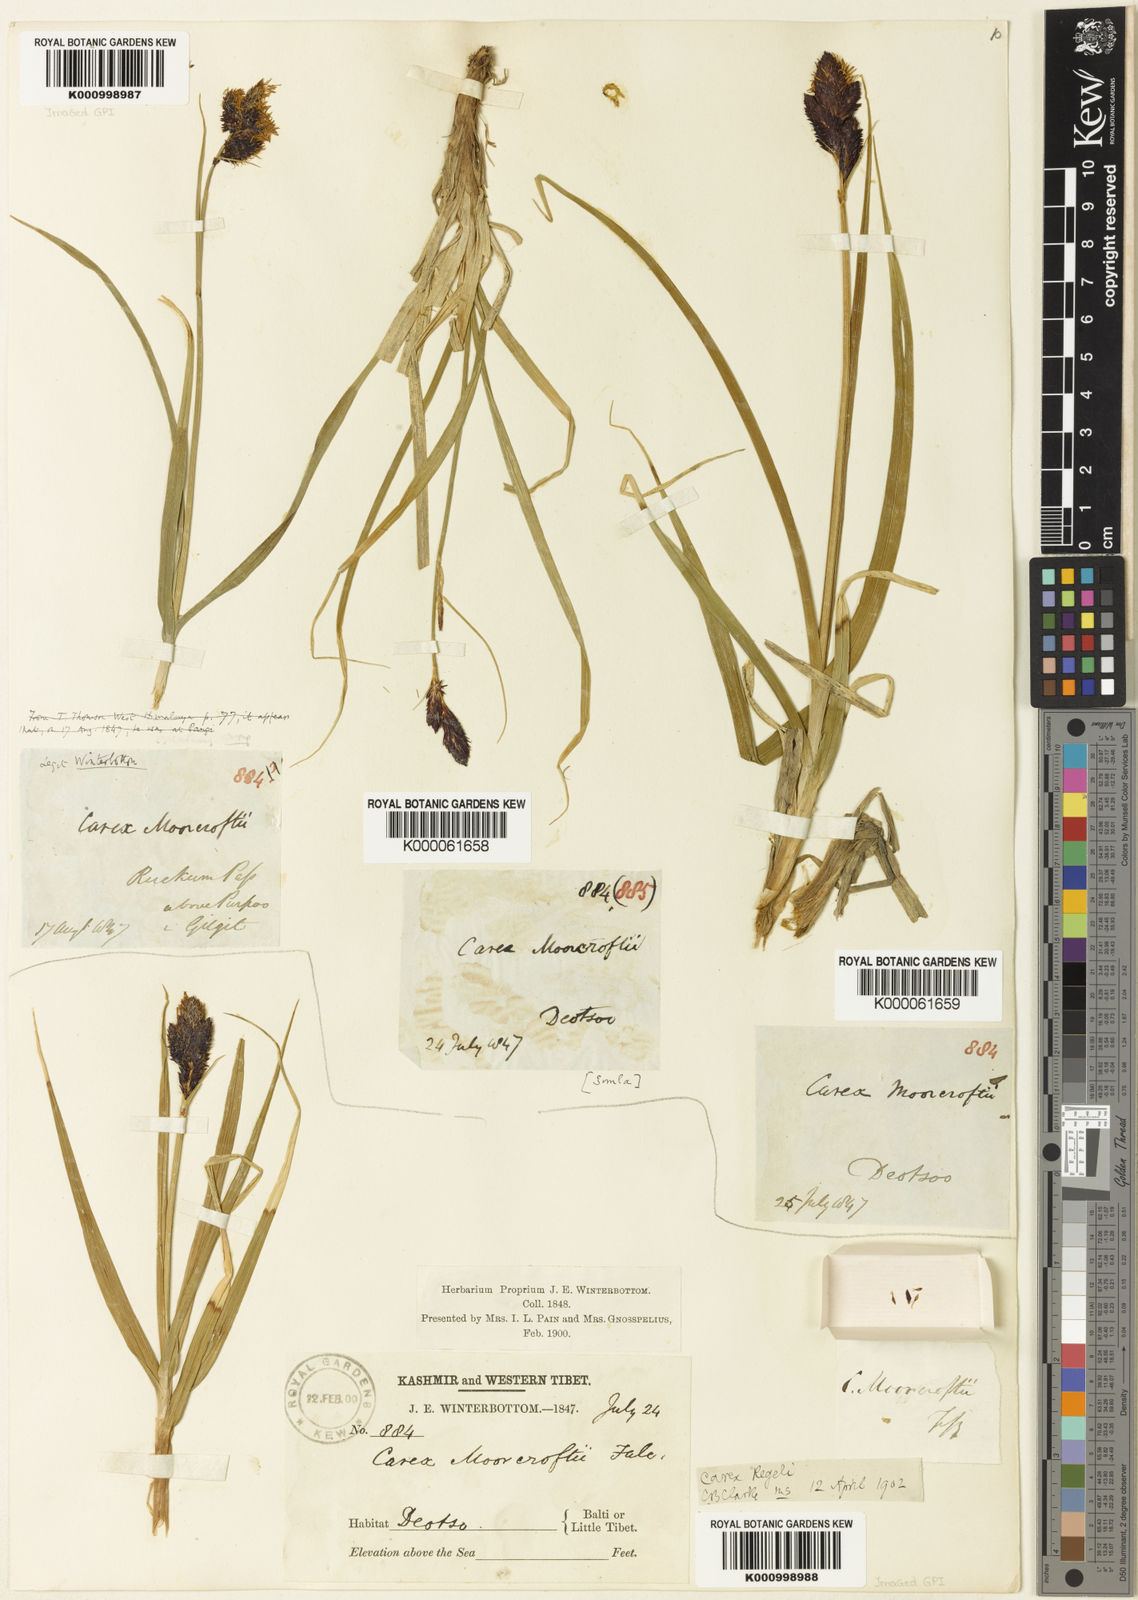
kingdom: Plantae
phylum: Tracheophyta
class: Liliopsida
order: Poales
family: Cyperaceae
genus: Carex
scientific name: Carex melanantha
